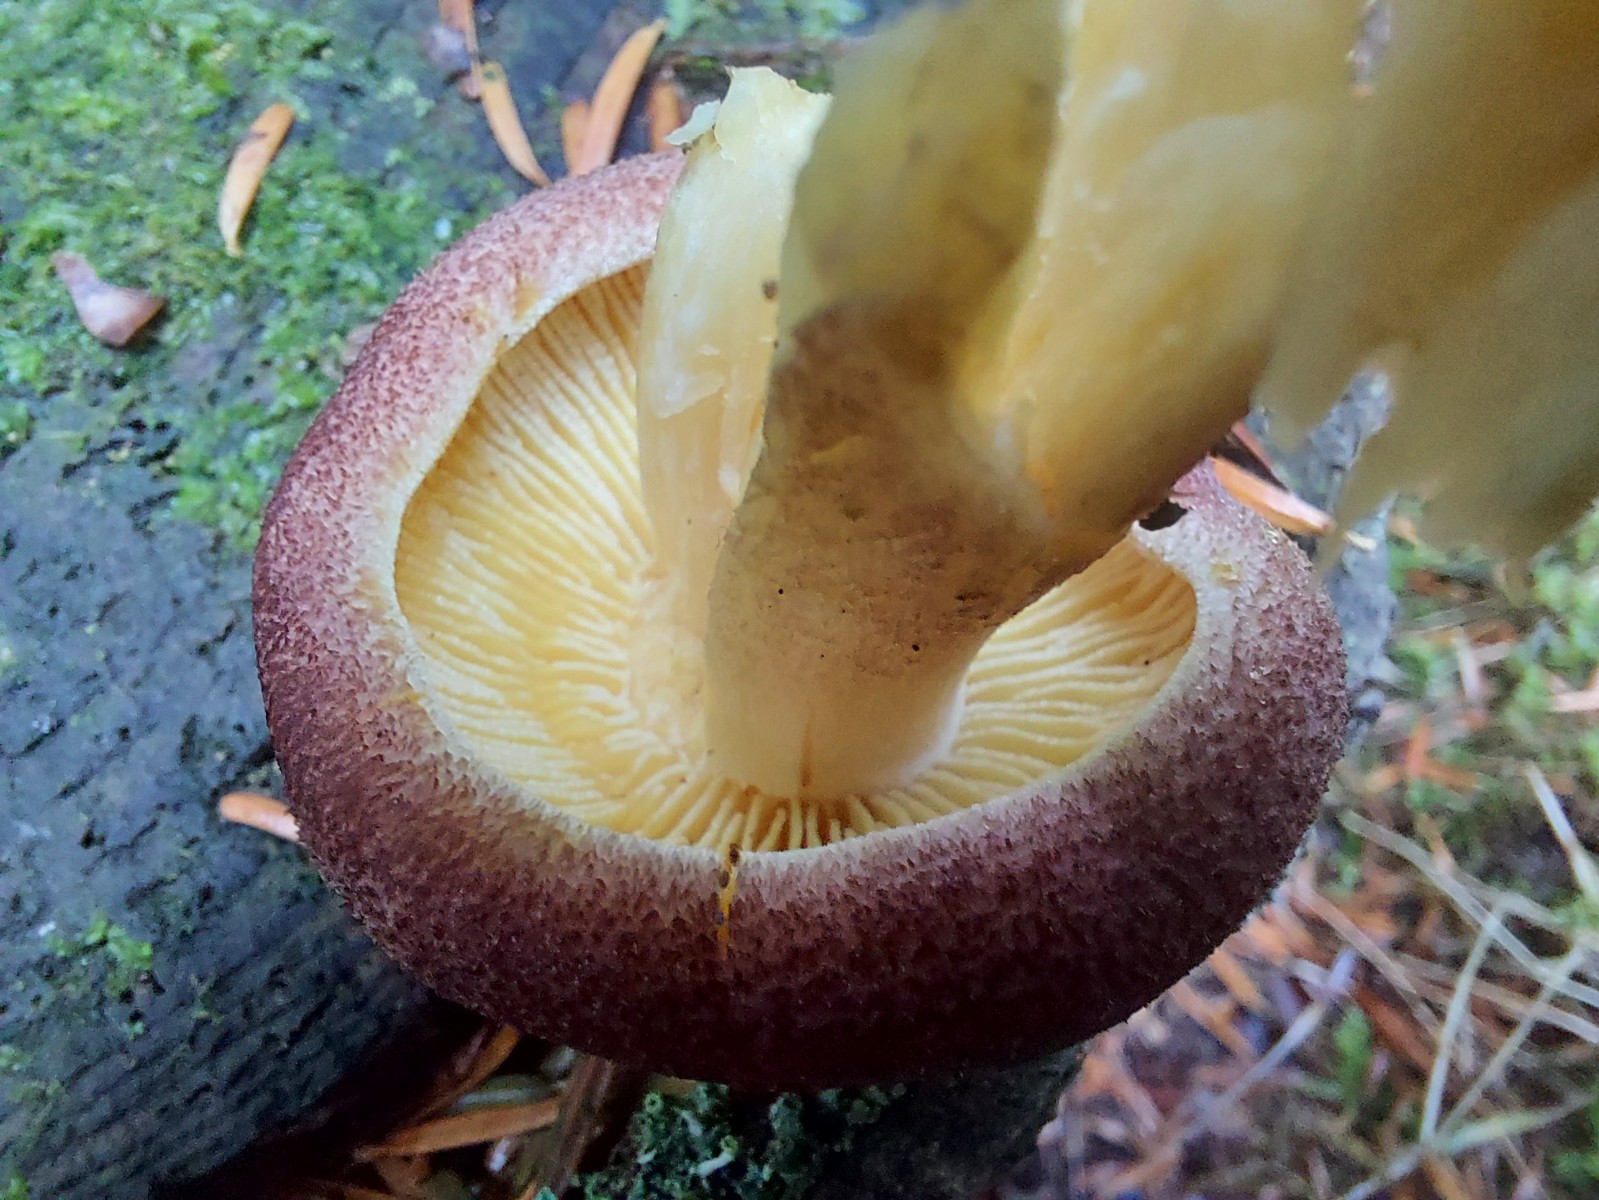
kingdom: Fungi
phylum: Basidiomycota
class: Agaricomycetes
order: Agaricales
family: Tricholomataceae
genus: Tricholomopsis
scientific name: Tricholomopsis rutilans
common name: purpur-væbnerhat
